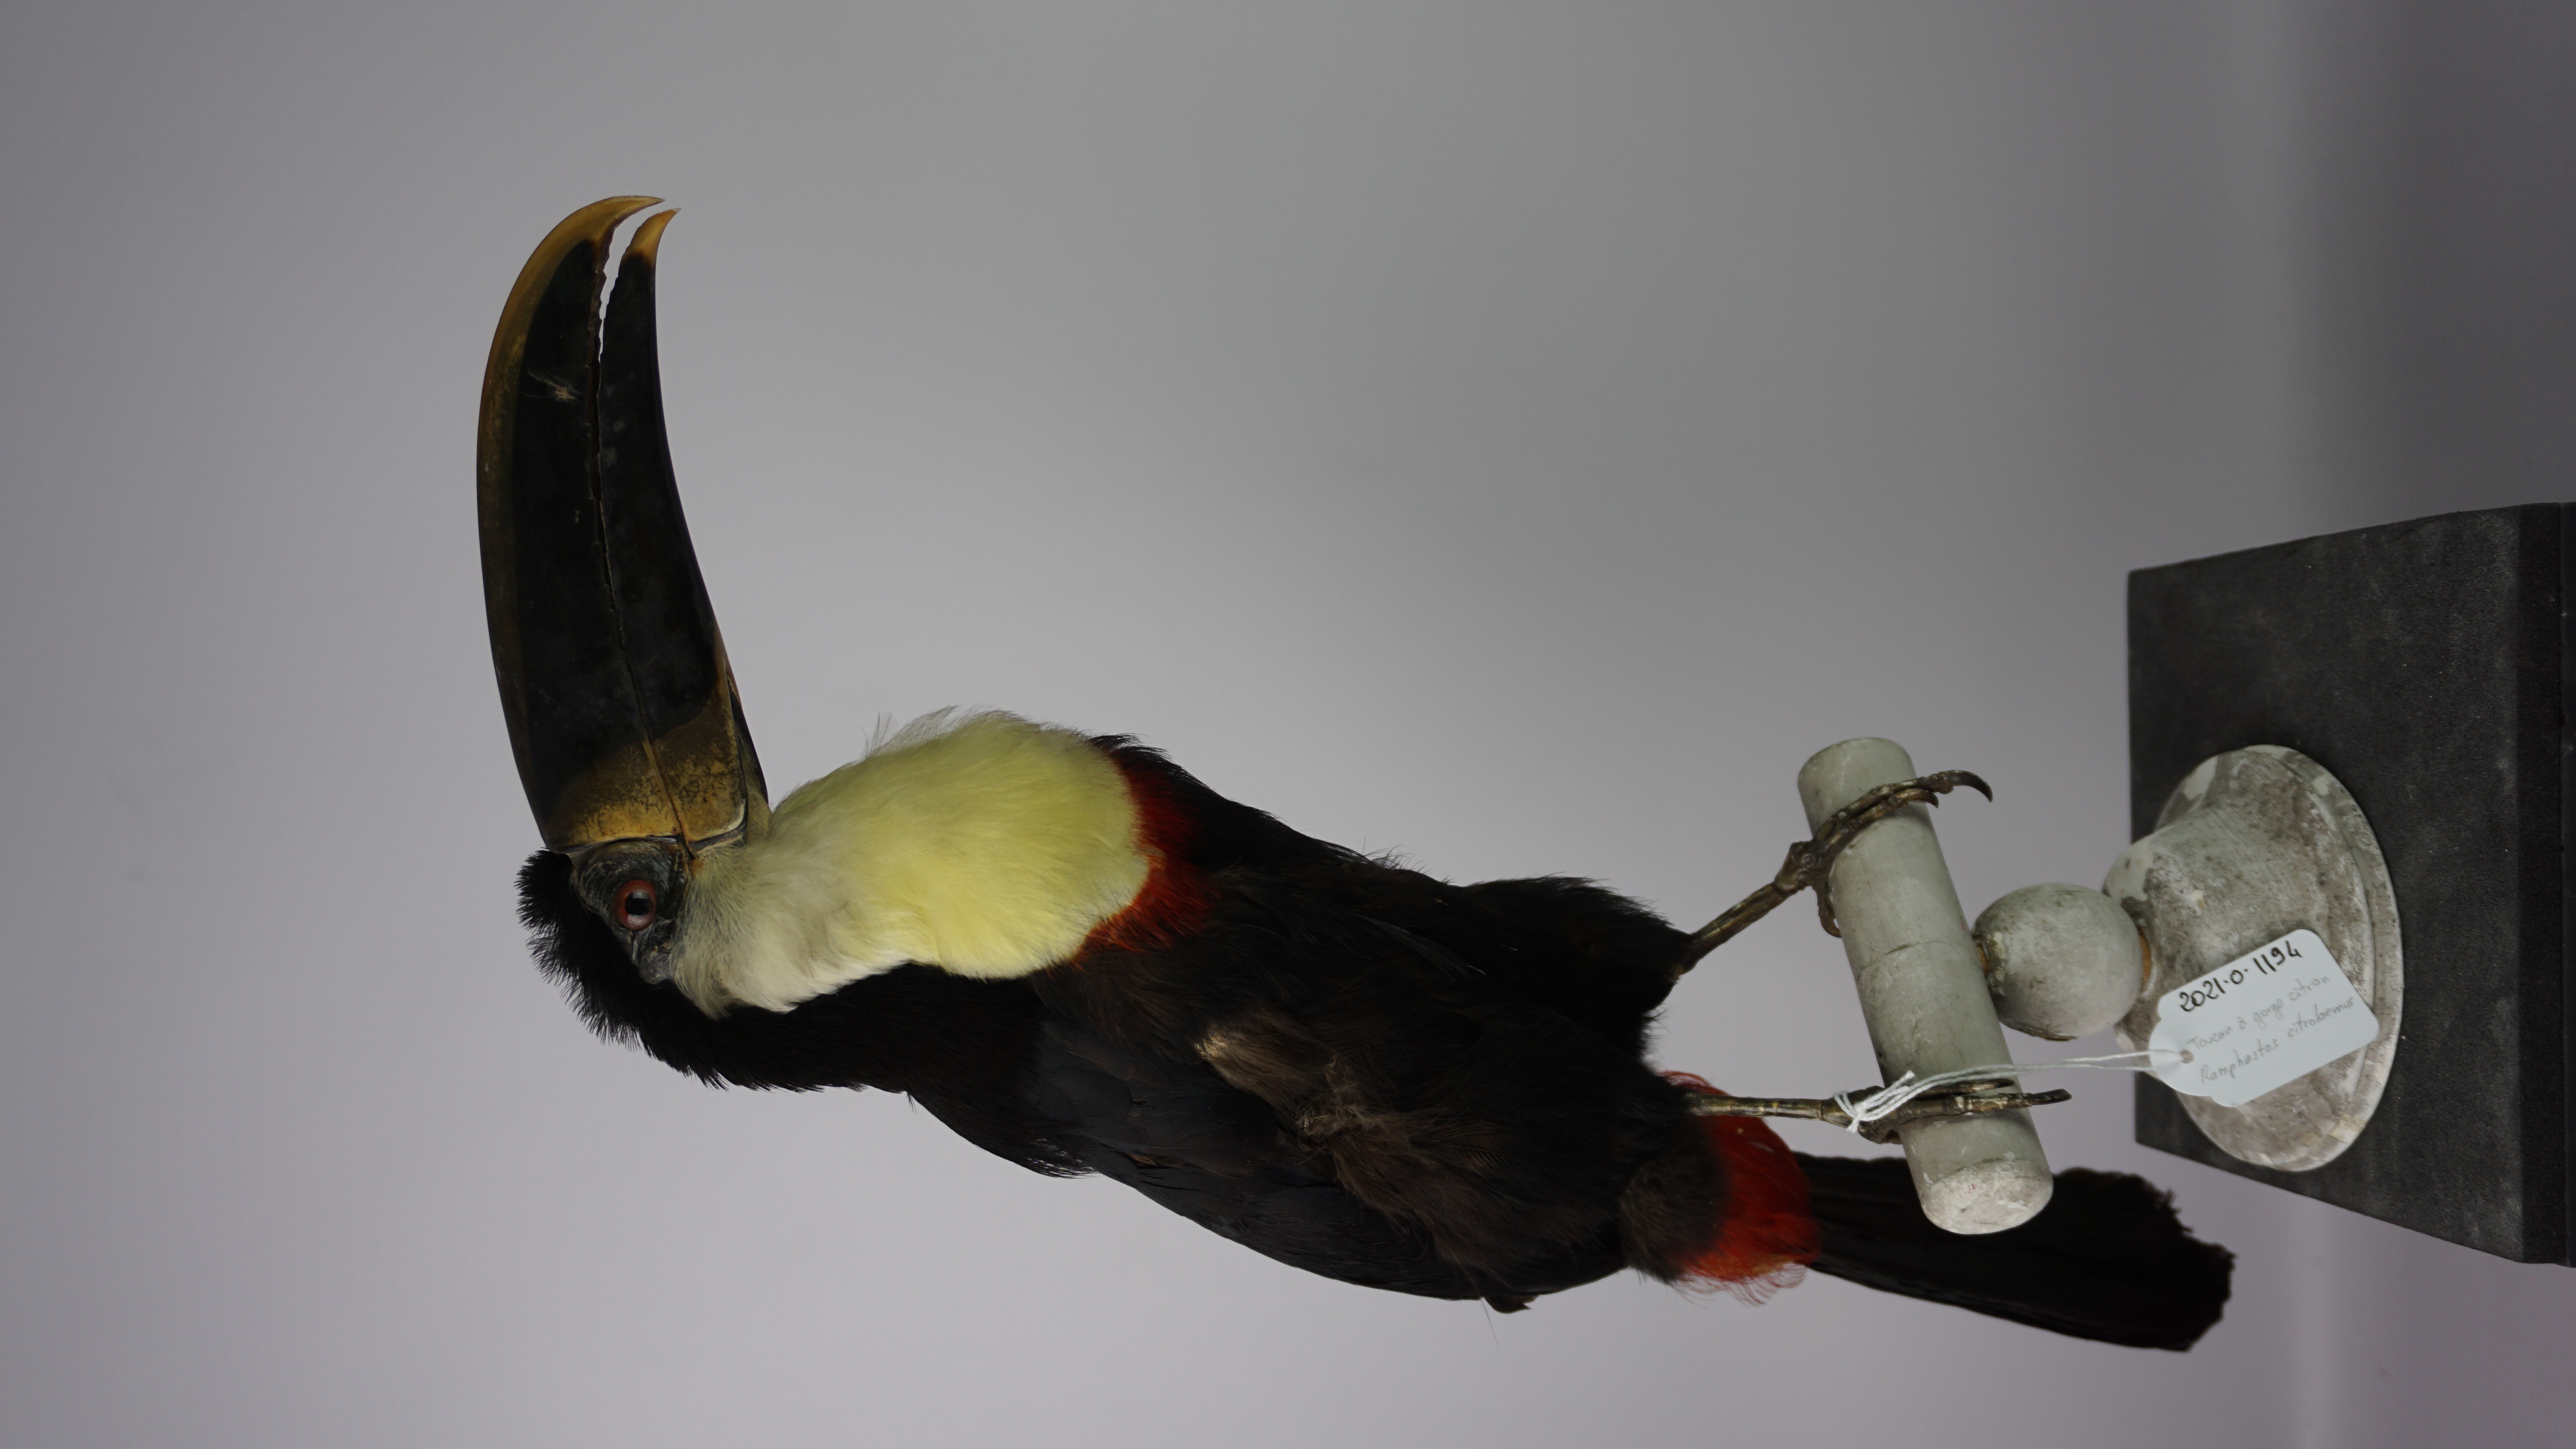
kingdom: Animalia
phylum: Chordata
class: Aves
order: Piciformes
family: Ramphastidae
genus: Ramphastos
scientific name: Ramphastos citreolaemus
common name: Citron-throated toucan
